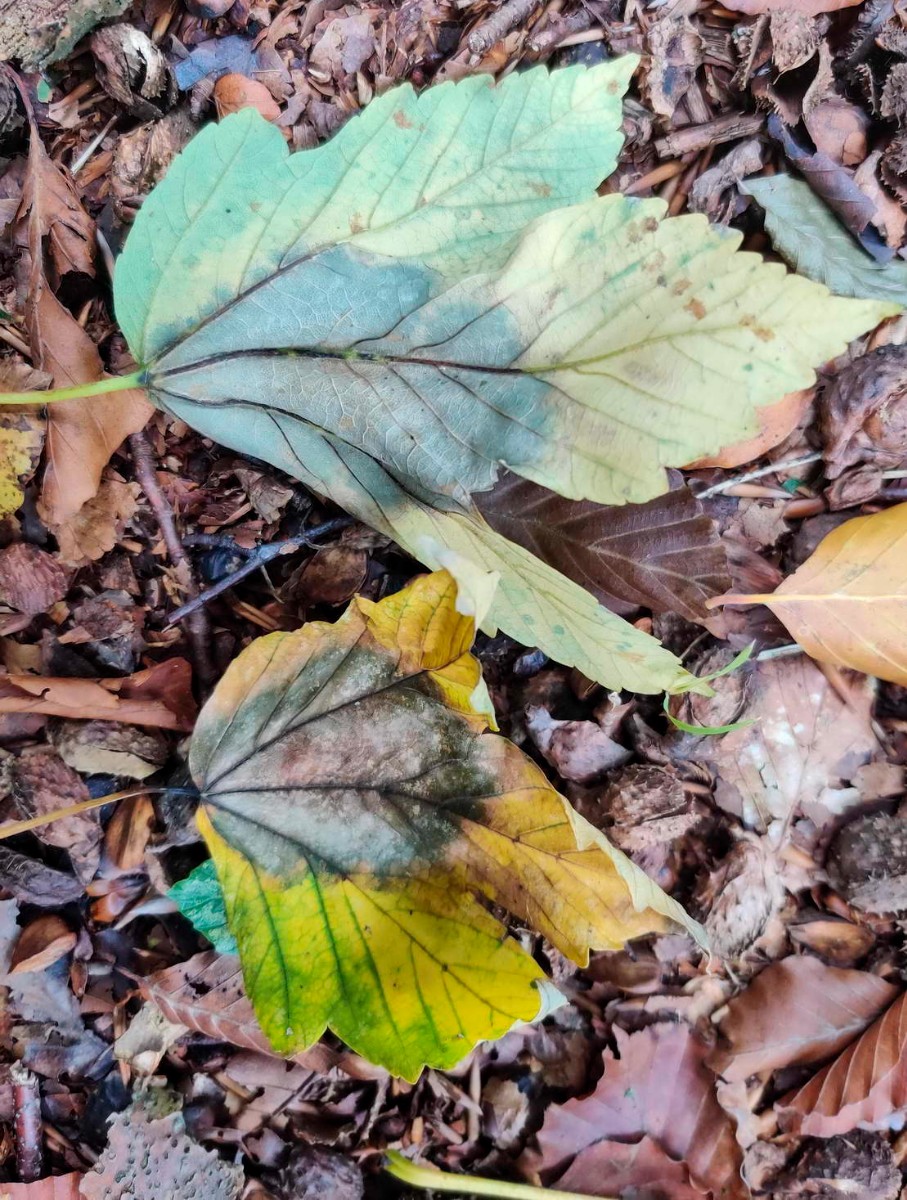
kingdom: Fungi
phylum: Ascomycota
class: Sordariomycetes
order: Diaporthales
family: Gnomoniaceae
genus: Pleuroceras
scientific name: Pleuroceras pseudoplatani
